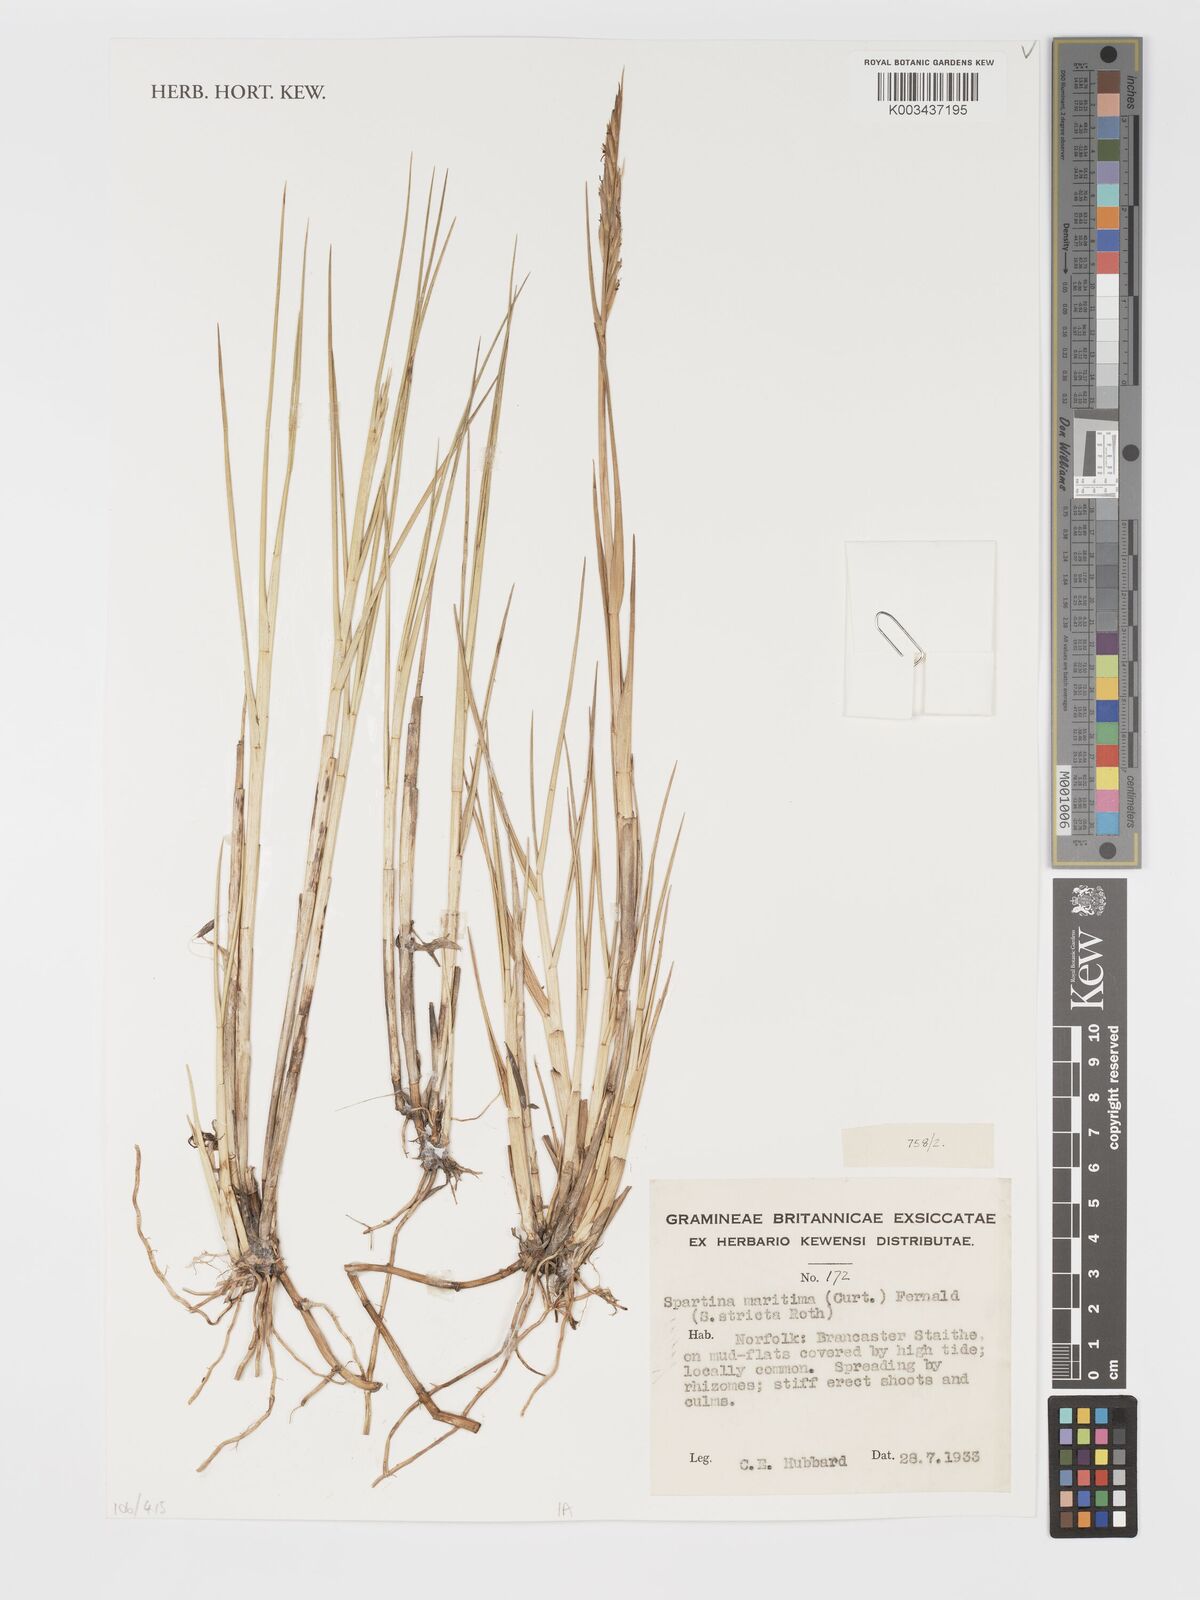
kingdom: Plantae
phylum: Tracheophyta
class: Liliopsida
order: Poales
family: Poaceae
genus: Sporobolus
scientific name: Sporobolus maritimus
